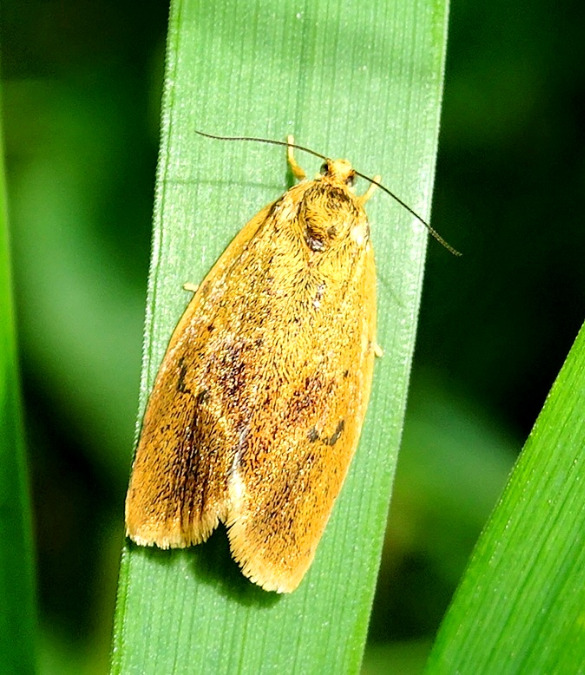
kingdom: Animalia
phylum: Arthropoda
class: Insecta
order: Lepidoptera
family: Tortricidae
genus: Ptycholoma
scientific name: Ptycholoma lecheana
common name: Gulbugvikler
